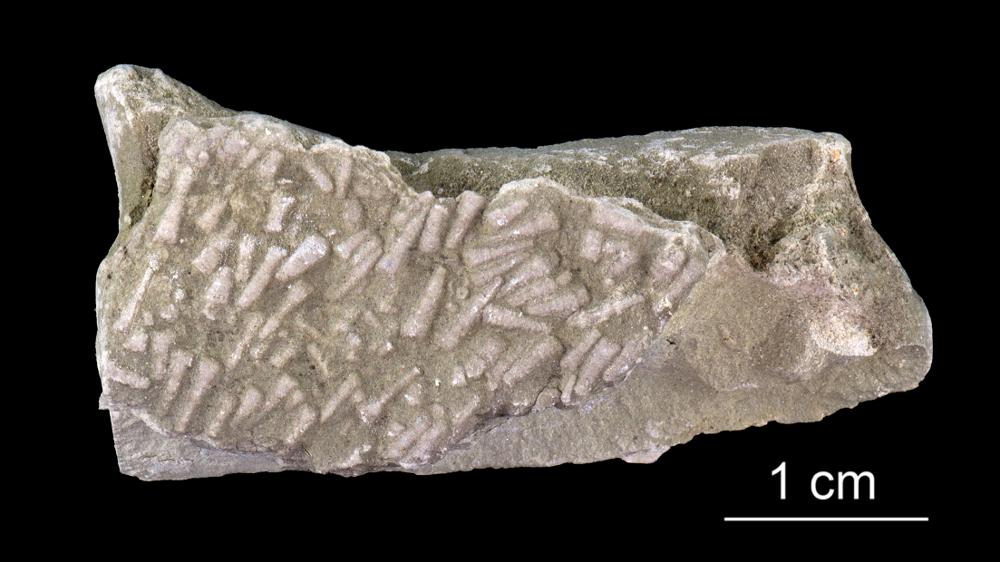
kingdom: Animalia
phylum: Annelida
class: Polychaeta
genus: Volborthella
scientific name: Volborthella tenuis
